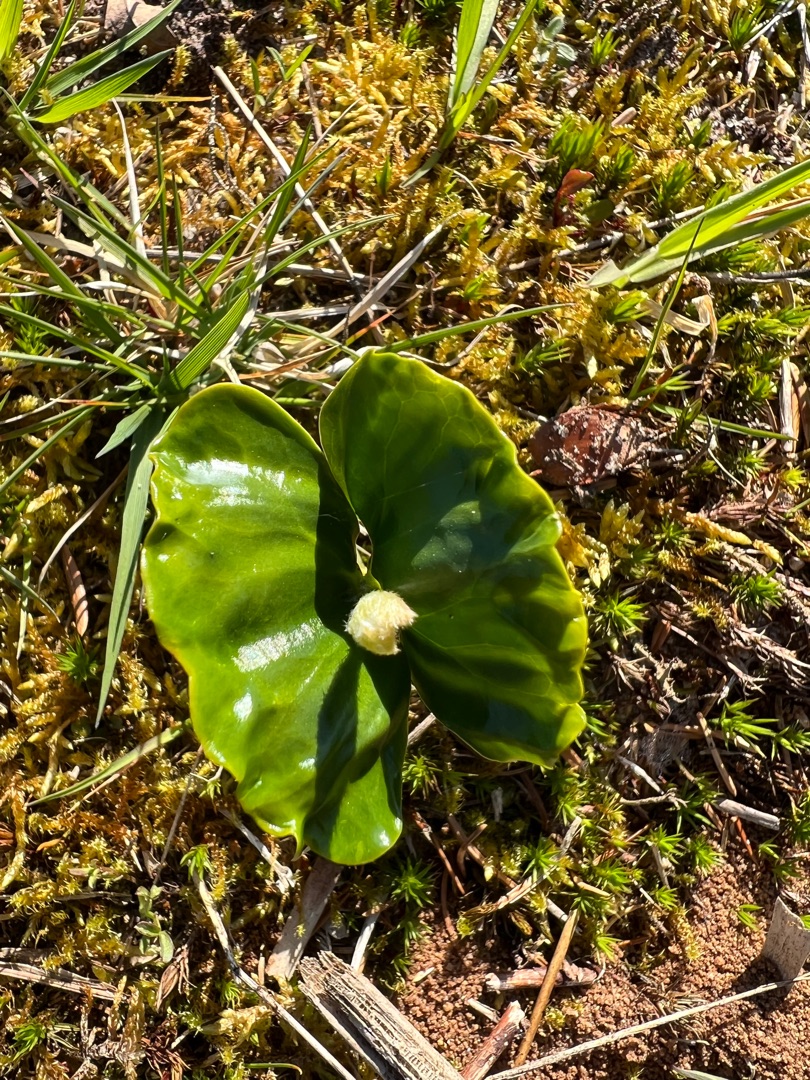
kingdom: Plantae
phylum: Tracheophyta
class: Magnoliopsida
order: Fagales
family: Fagaceae
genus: Fagus
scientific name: Fagus sylvatica
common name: Bøg
